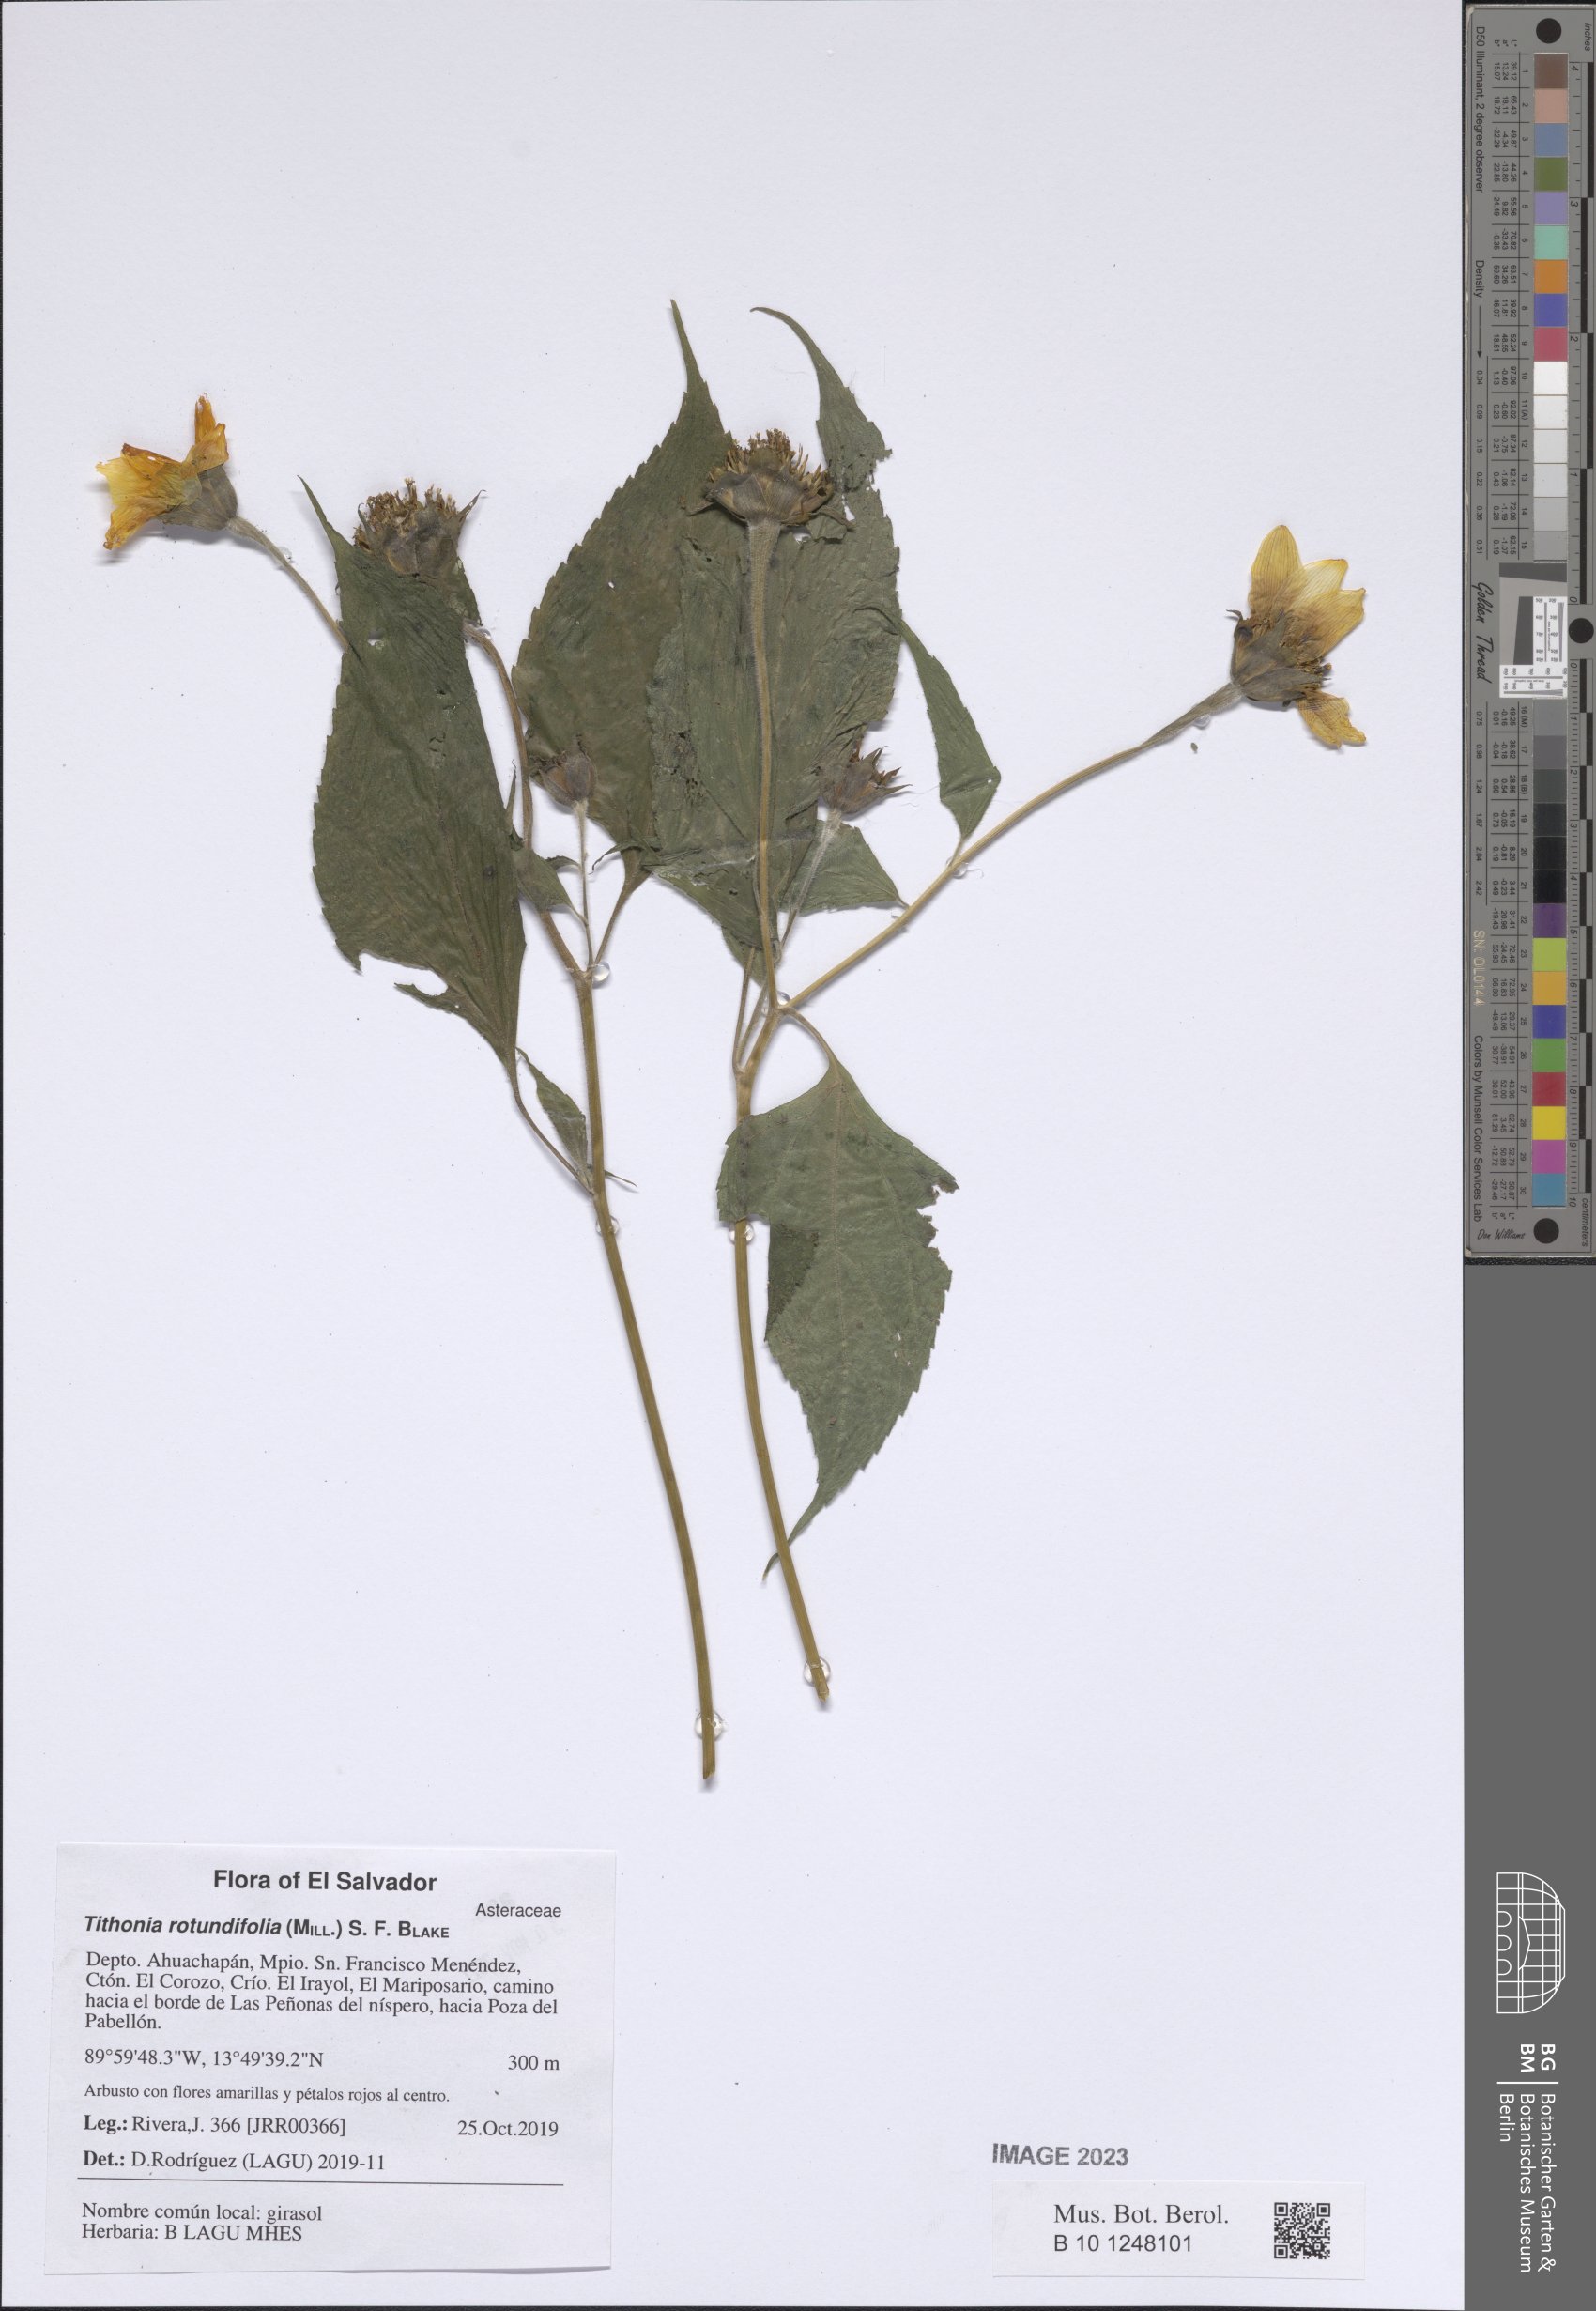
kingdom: Plantae
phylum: Tracheophyta
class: Magnoliopsida
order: Asterales
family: Asteraceae
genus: Tithonia
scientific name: Tithonia rotundifolia
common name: Sunflower
